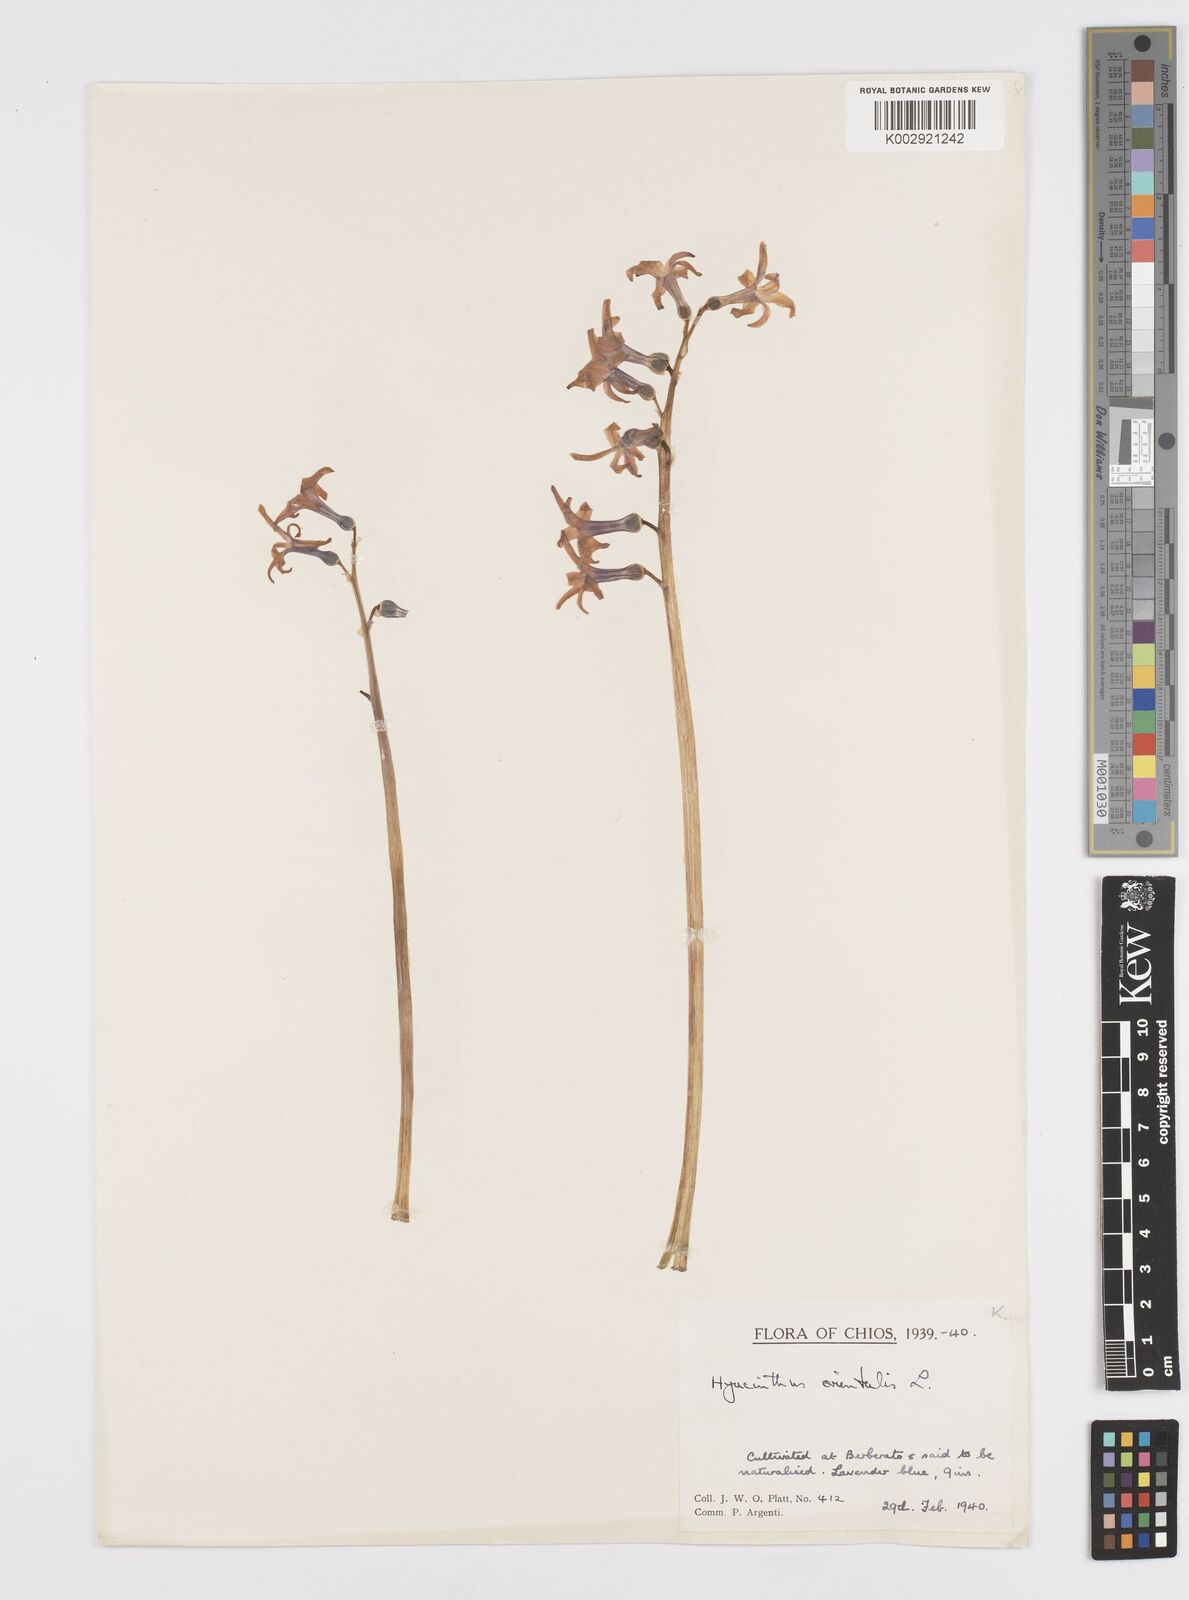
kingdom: Plantae
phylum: Tracheophyta
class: Liliopsida
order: Asparagales
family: Asparagaceae
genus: Hyacinthus
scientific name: Hyacinthus orientalis
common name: Hyacinth
